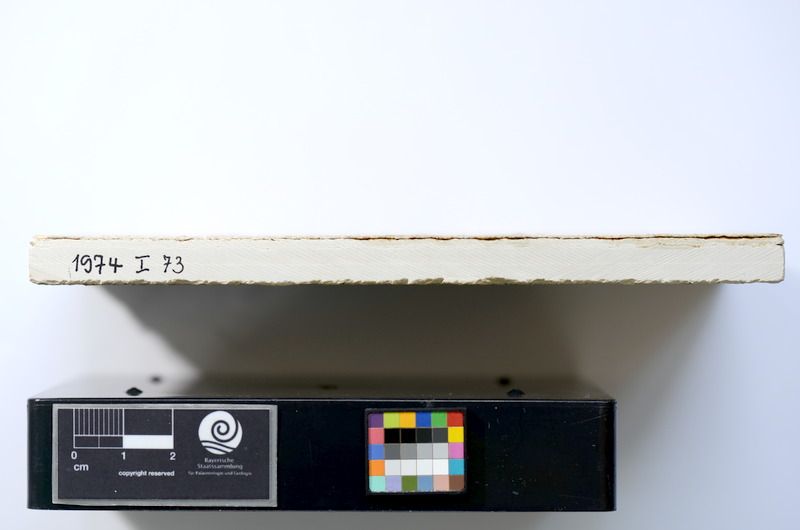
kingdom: Animalia
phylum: Chordata
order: Salmoniformes
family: Orthogonikleithridae
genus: Leptolepides
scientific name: Leptolepides sprattiformis
